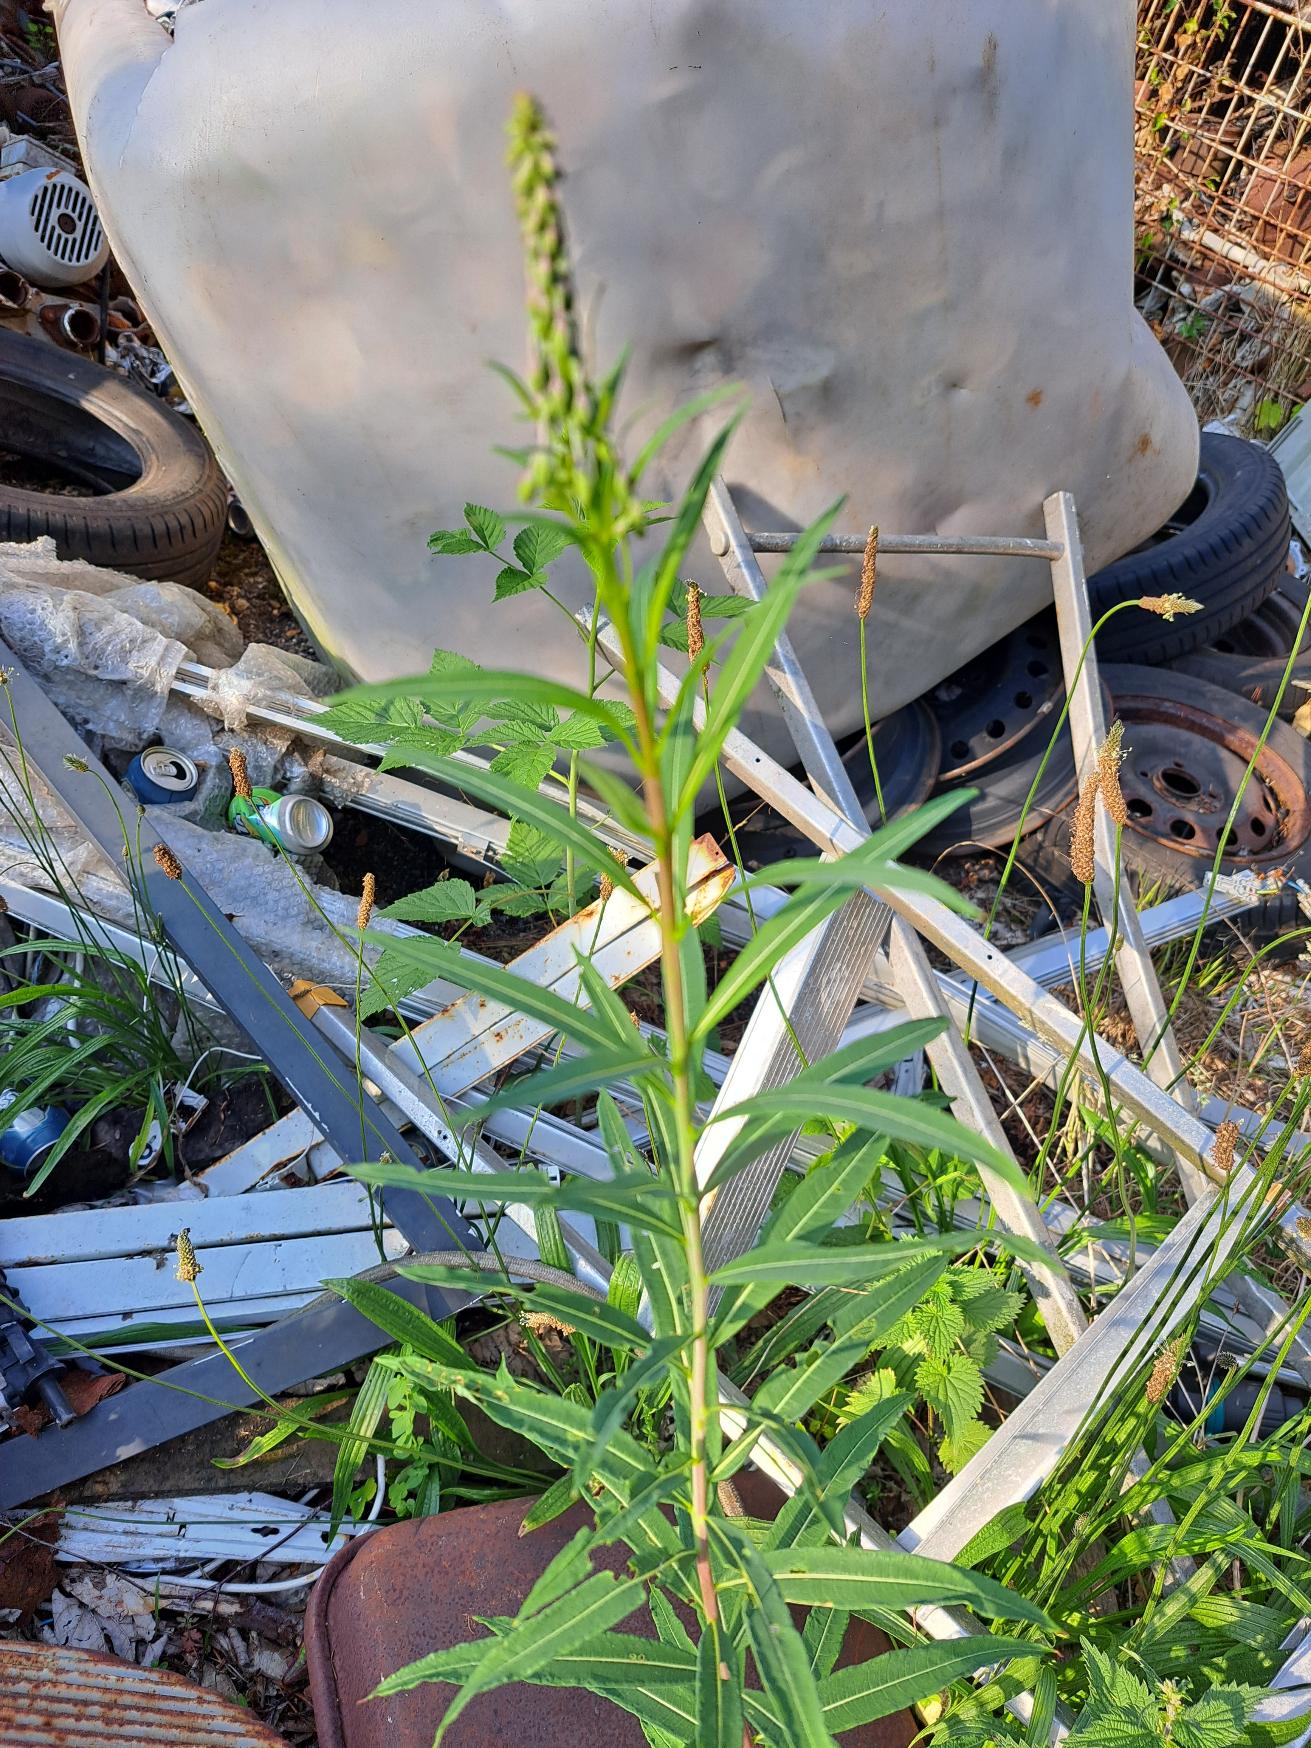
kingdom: Plantae
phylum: Tracheophyta
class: Magnoliopsida
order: Myrtales
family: Onagraceae
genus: Chamaenerion
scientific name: Chamaenerion angustifolium
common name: Gederams
